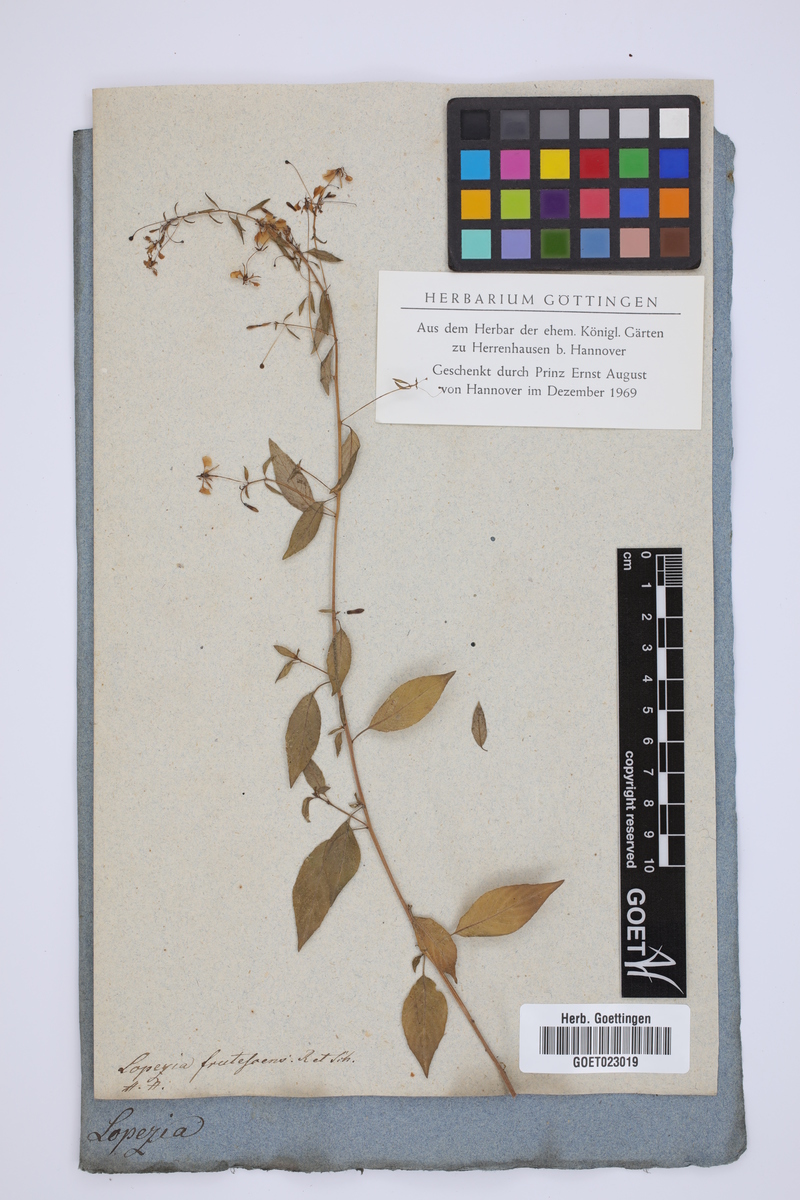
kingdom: Plantae
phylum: Tracheophyta
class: Magnoliopsida
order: Myrtales
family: Onagraceae
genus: Lopezia
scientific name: Lopezia miniata
